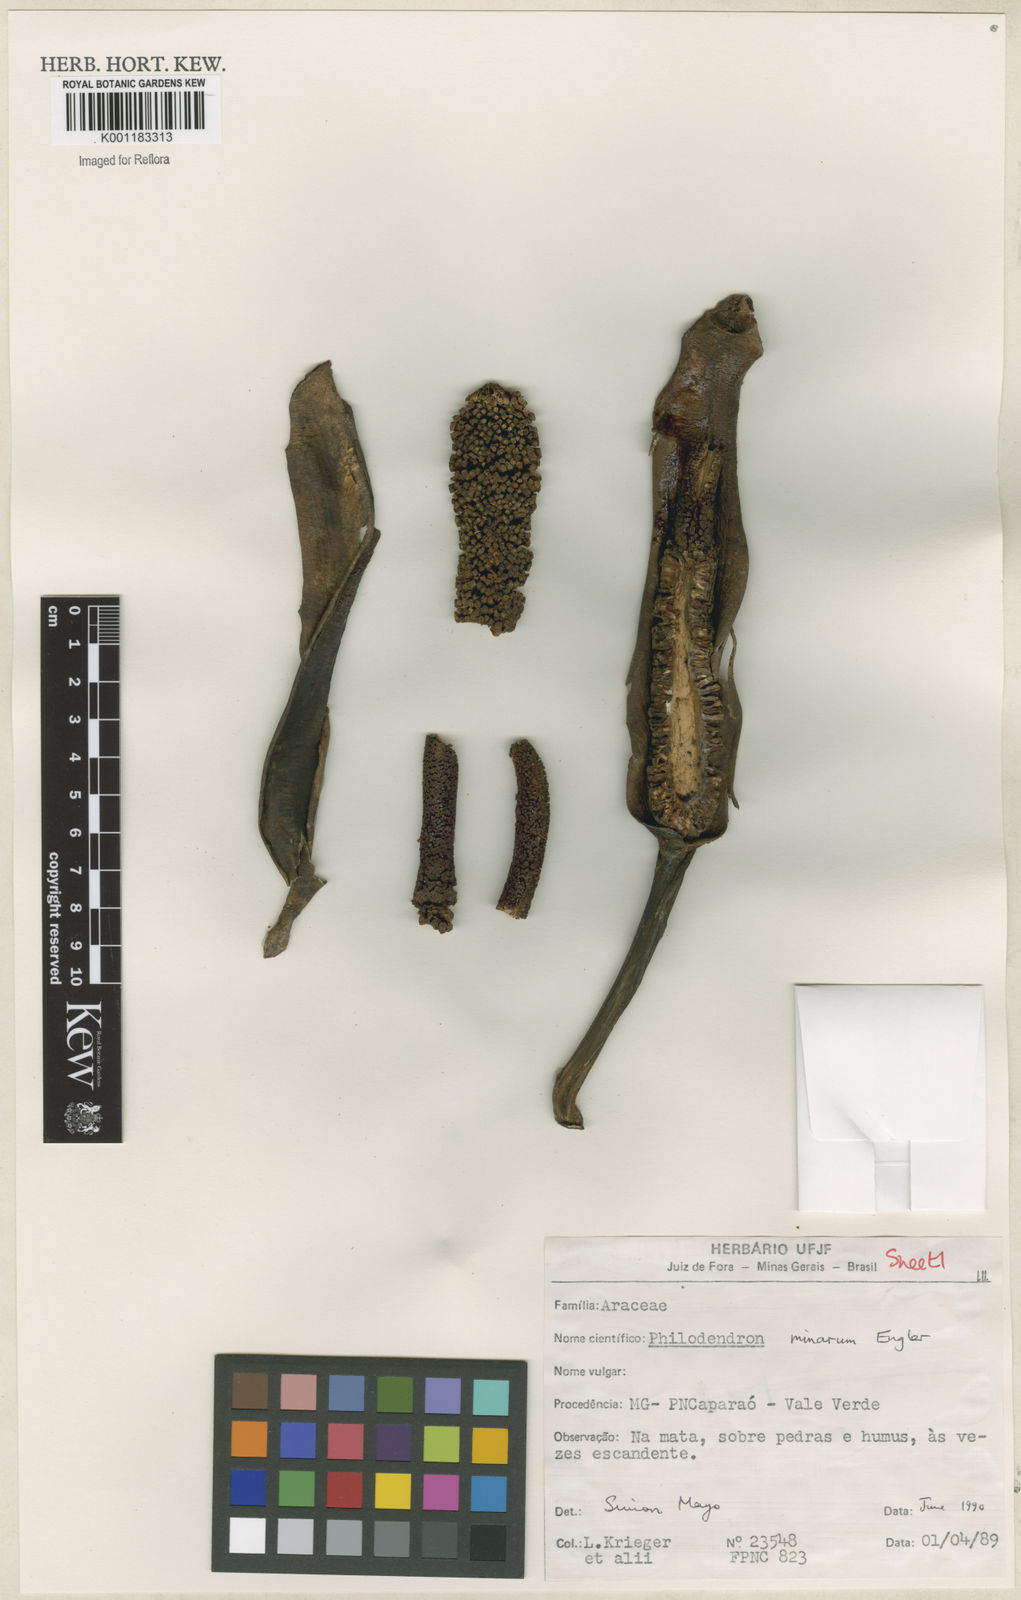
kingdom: Plantae
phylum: Tracheophyta
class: Liliopsida
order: Alismatales
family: Araceae
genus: Philodendron
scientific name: Philodendron minarum
